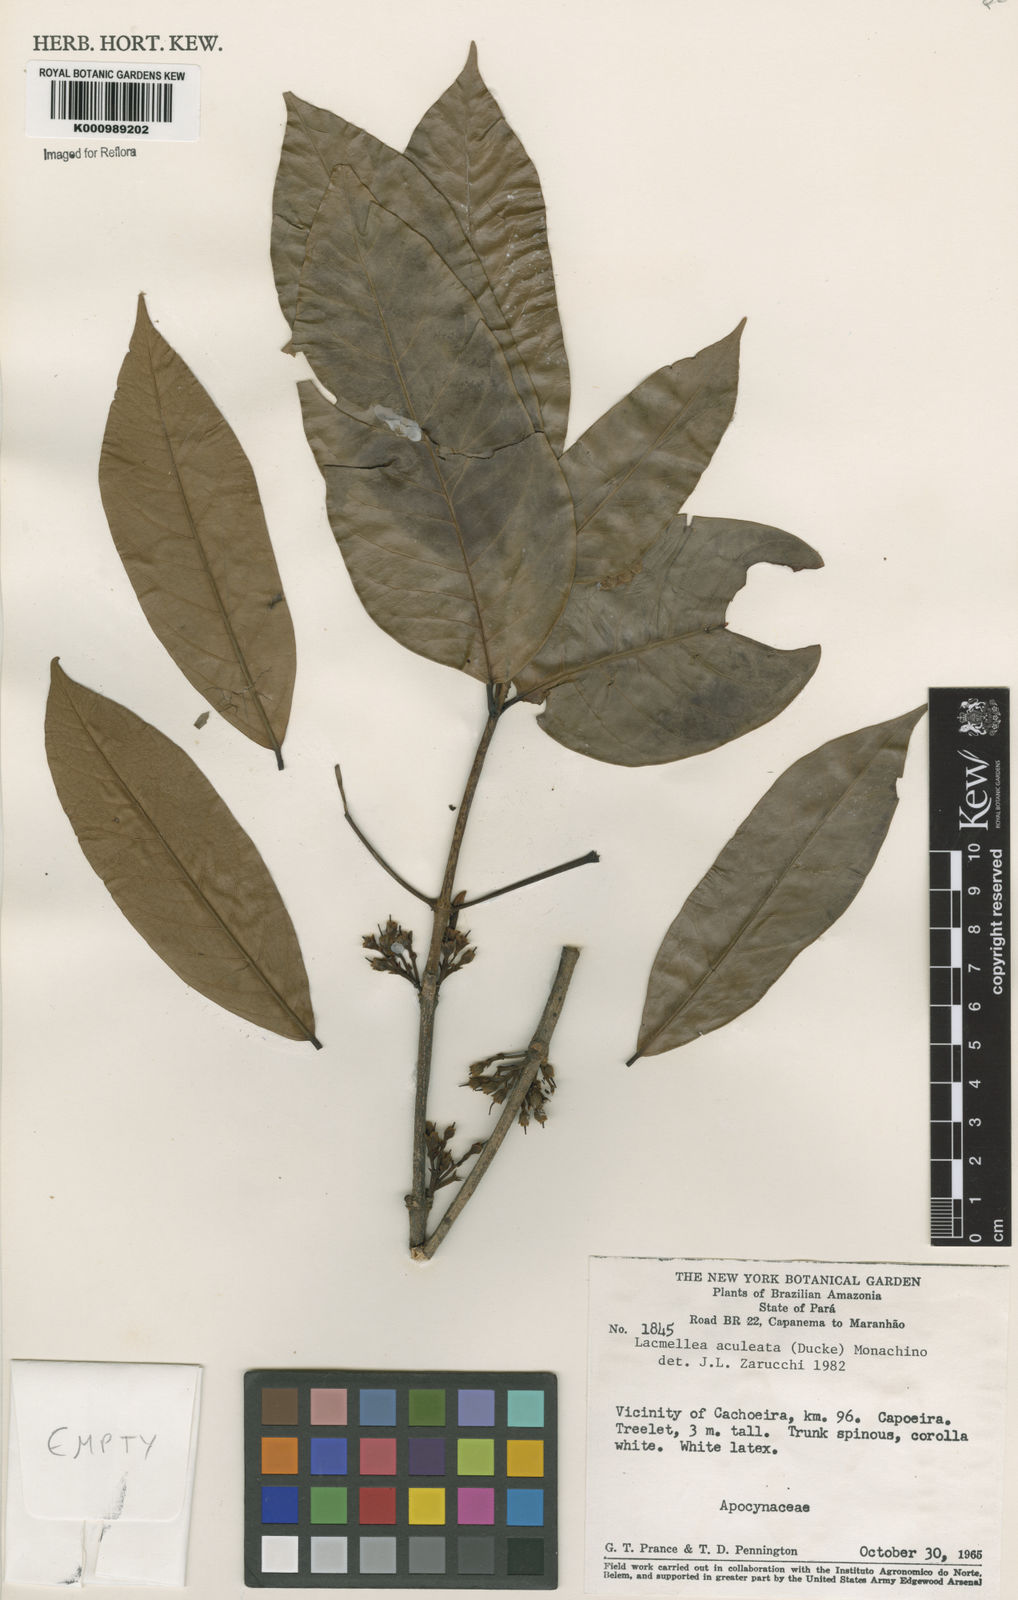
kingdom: Plantae
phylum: Tracheophyta
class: Magnoliopsida
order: Gentianales
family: Apocynaceae
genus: Lacmellea
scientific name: Lacmellea aculeata
